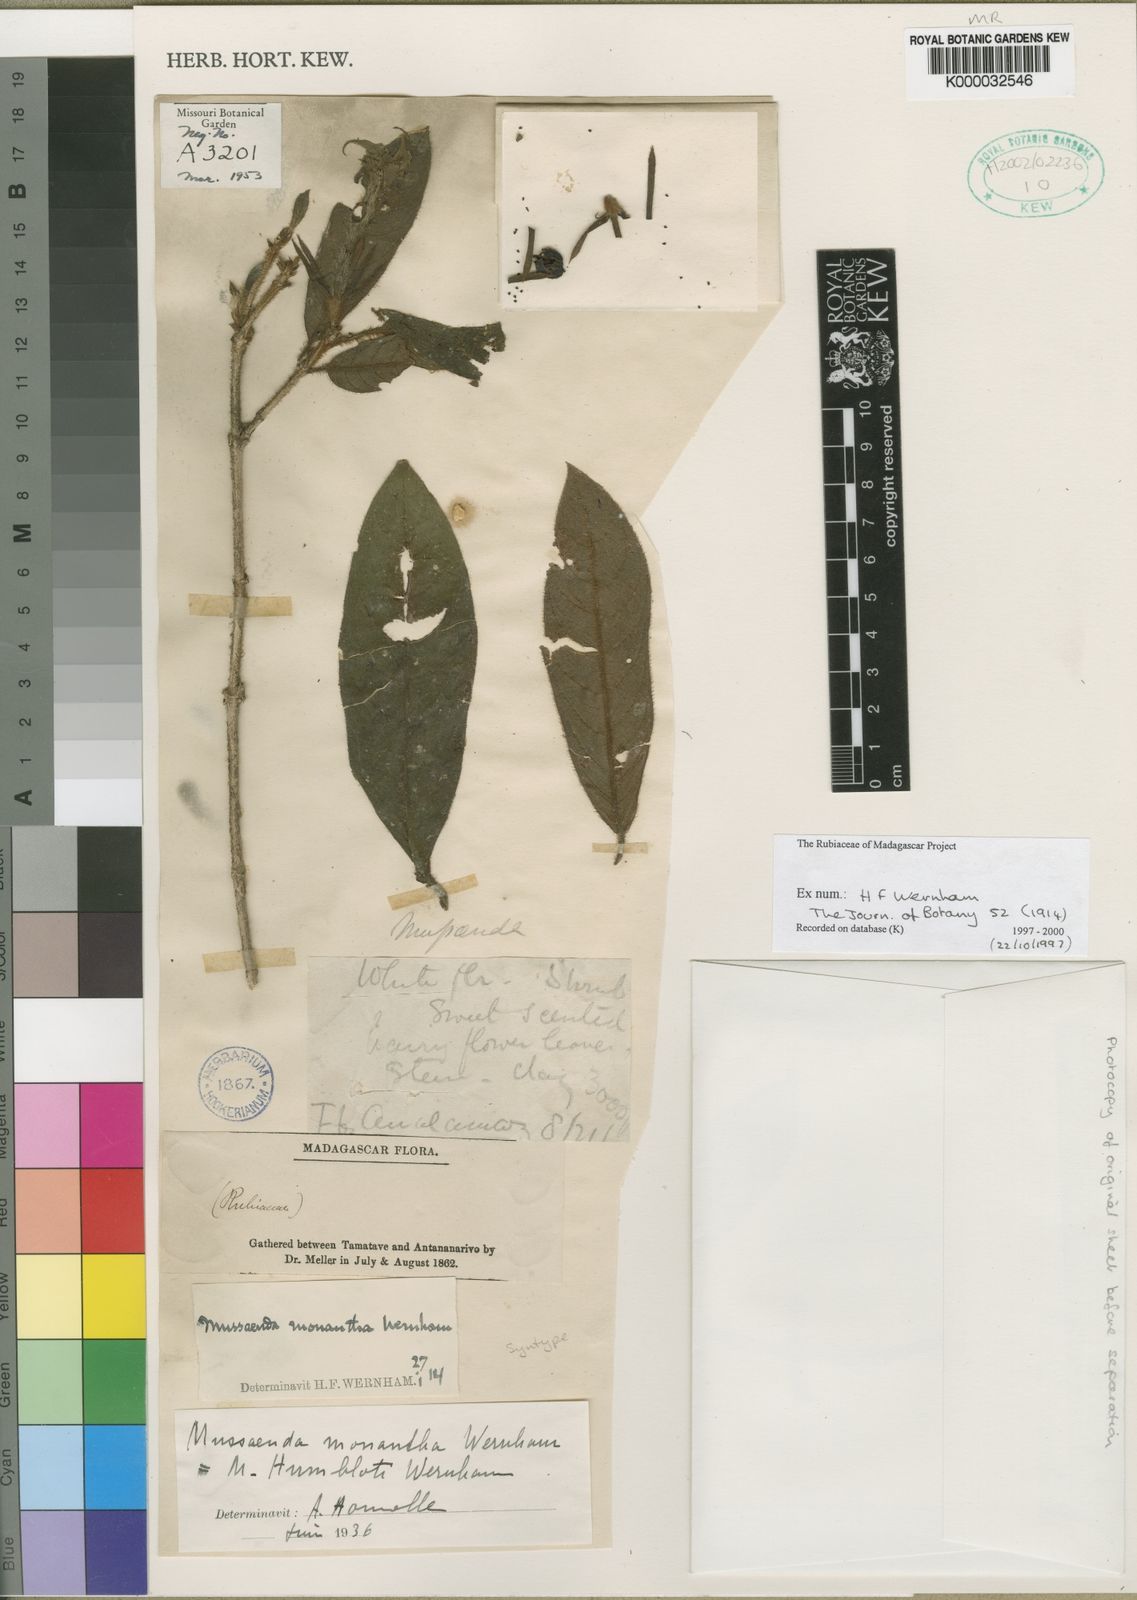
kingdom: Plantae
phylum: Tracheophyta
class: Magnoliopsida
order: Gentianales
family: Rubiaceae
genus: Bremeria
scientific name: Bremeria humblotii
